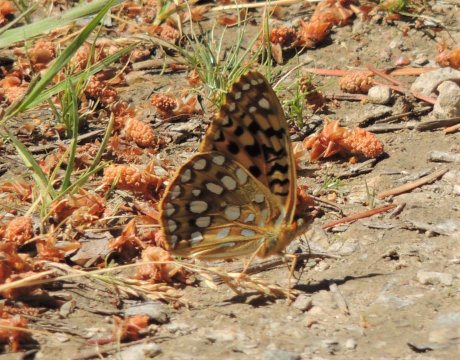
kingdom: Animalia
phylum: Arthropoda
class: Insecta
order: Lepidoptera
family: Nymphalidae
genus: Speyeria
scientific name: Speyeria coronis
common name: Coronis Fritillary
